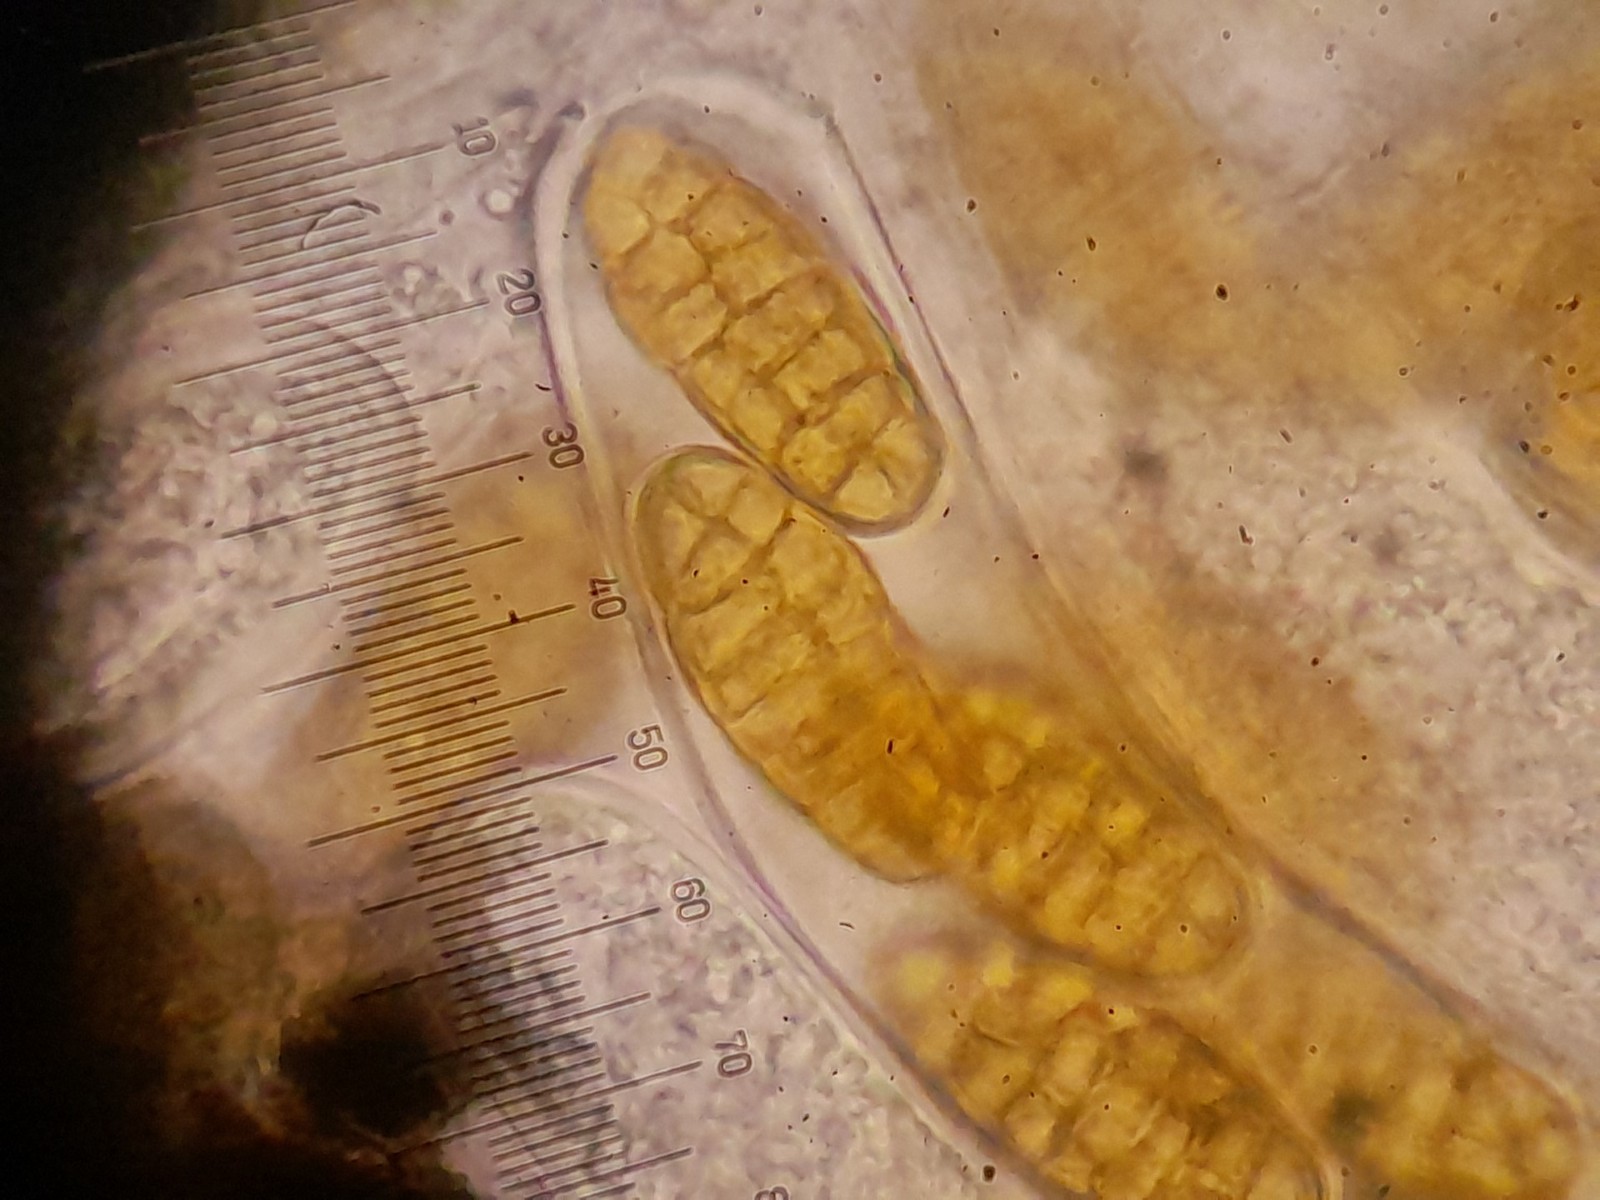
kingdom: Fungi
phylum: Ascomycota
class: Dothideomycetes
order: Pleosporales
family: Pleosporaceae
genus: Stemphylium
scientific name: Stemphylium vesicarium
